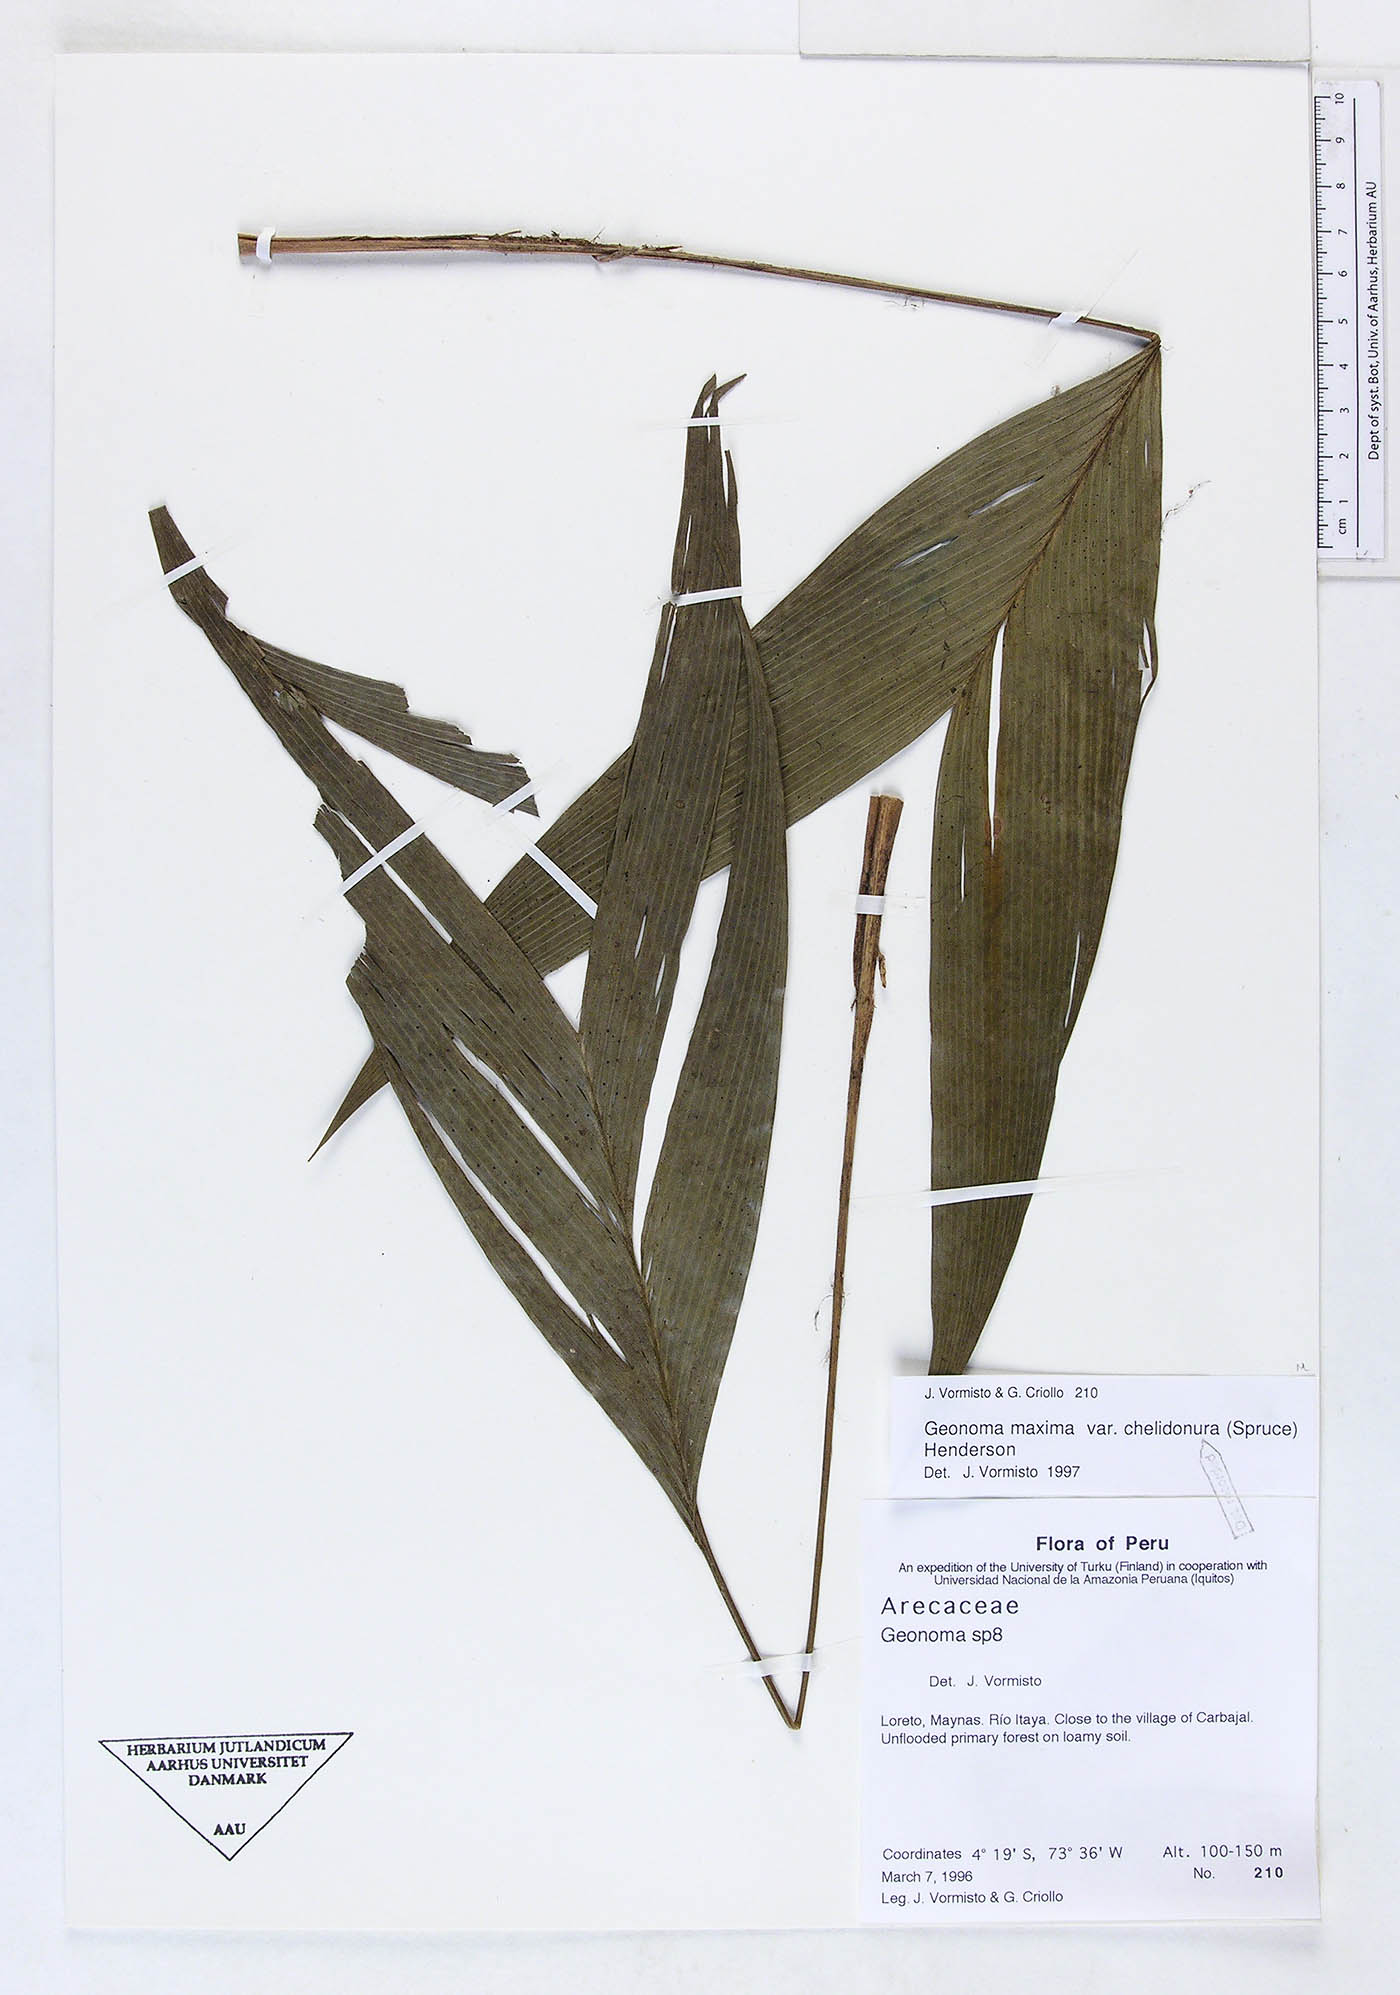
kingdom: Plantae
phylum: Tracheophyta
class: Liliopsida
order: Arecales
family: Arecaceae
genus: Geonoma
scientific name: Geonoma maxima
